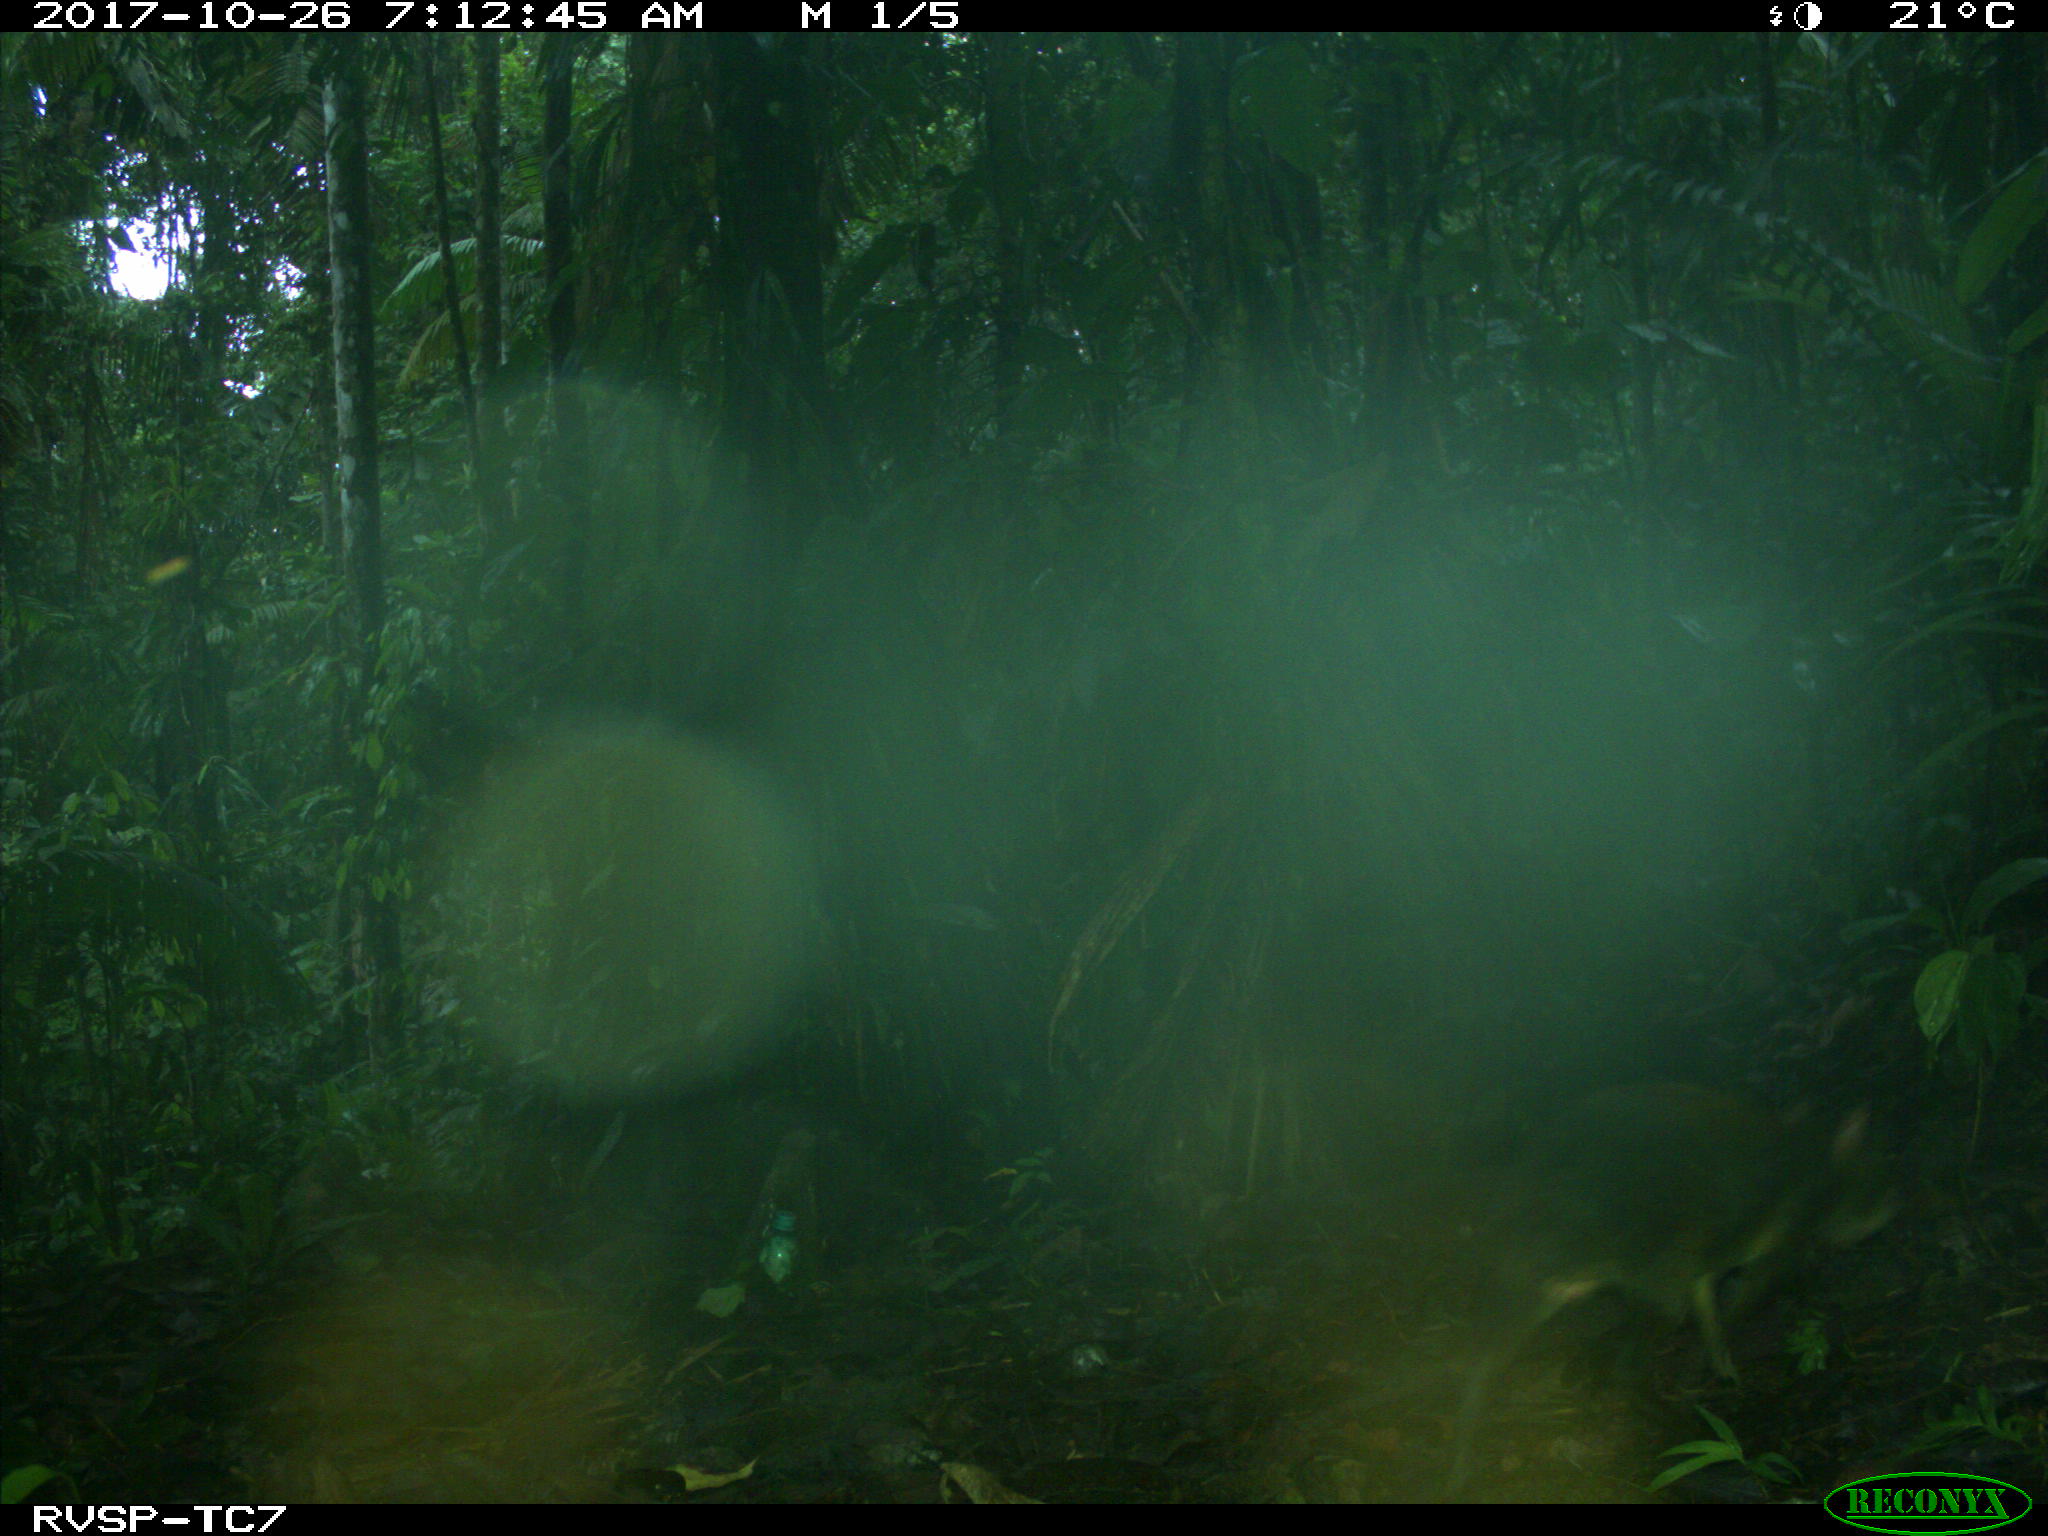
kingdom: Animalia
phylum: Chordata
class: Mammalia
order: Rodentia
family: Dasyproctidae
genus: Dasyprocta
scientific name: Dasyprocta punctata
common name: Central american agouti
